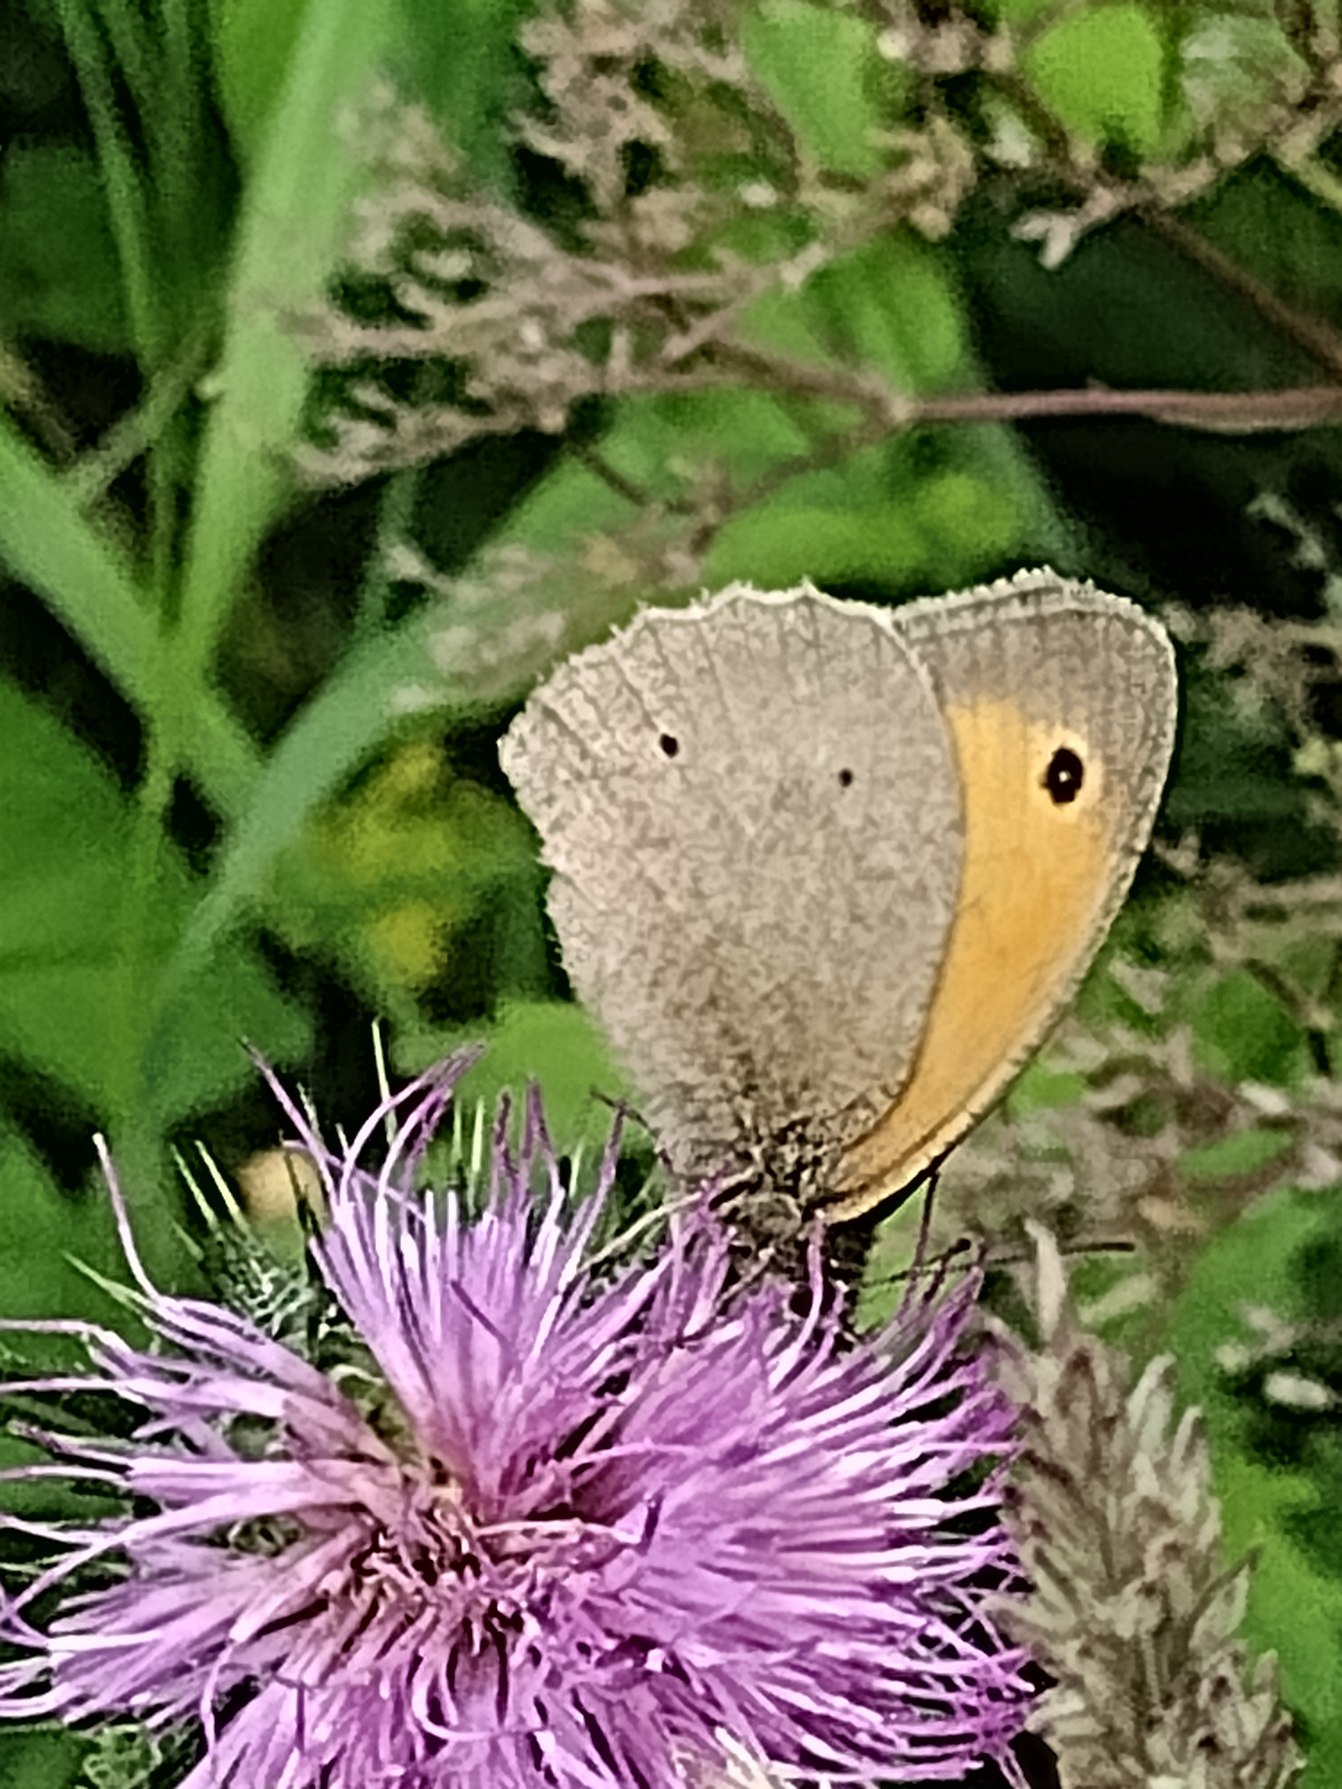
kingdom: Animalia
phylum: Arthropoda
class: Insecta
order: Lepidoptera
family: Nymphalidae
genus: Maniola
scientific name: Maniola jurtina
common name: Græsrandøje
